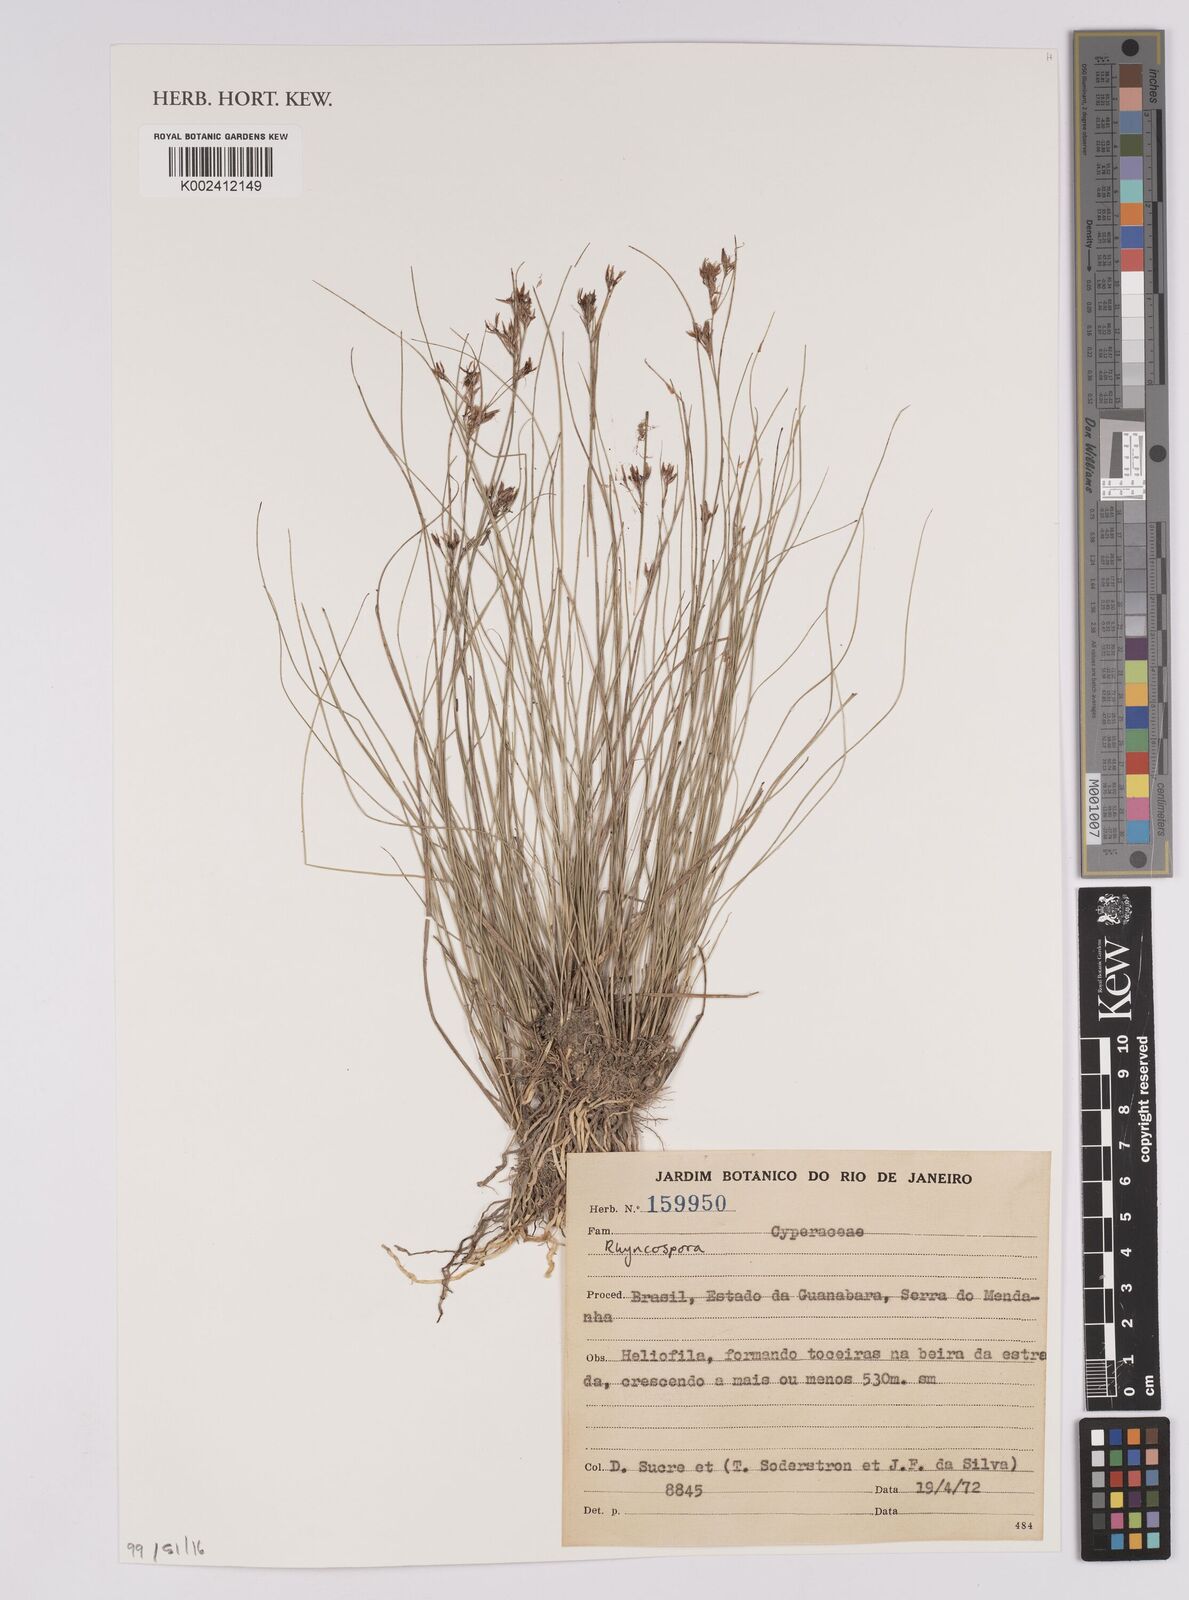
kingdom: Plantae
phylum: Tracheophyta
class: Liliopsida
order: Poales
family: Cyperaceae
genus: Rhynchospora
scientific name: Rhynchospora
